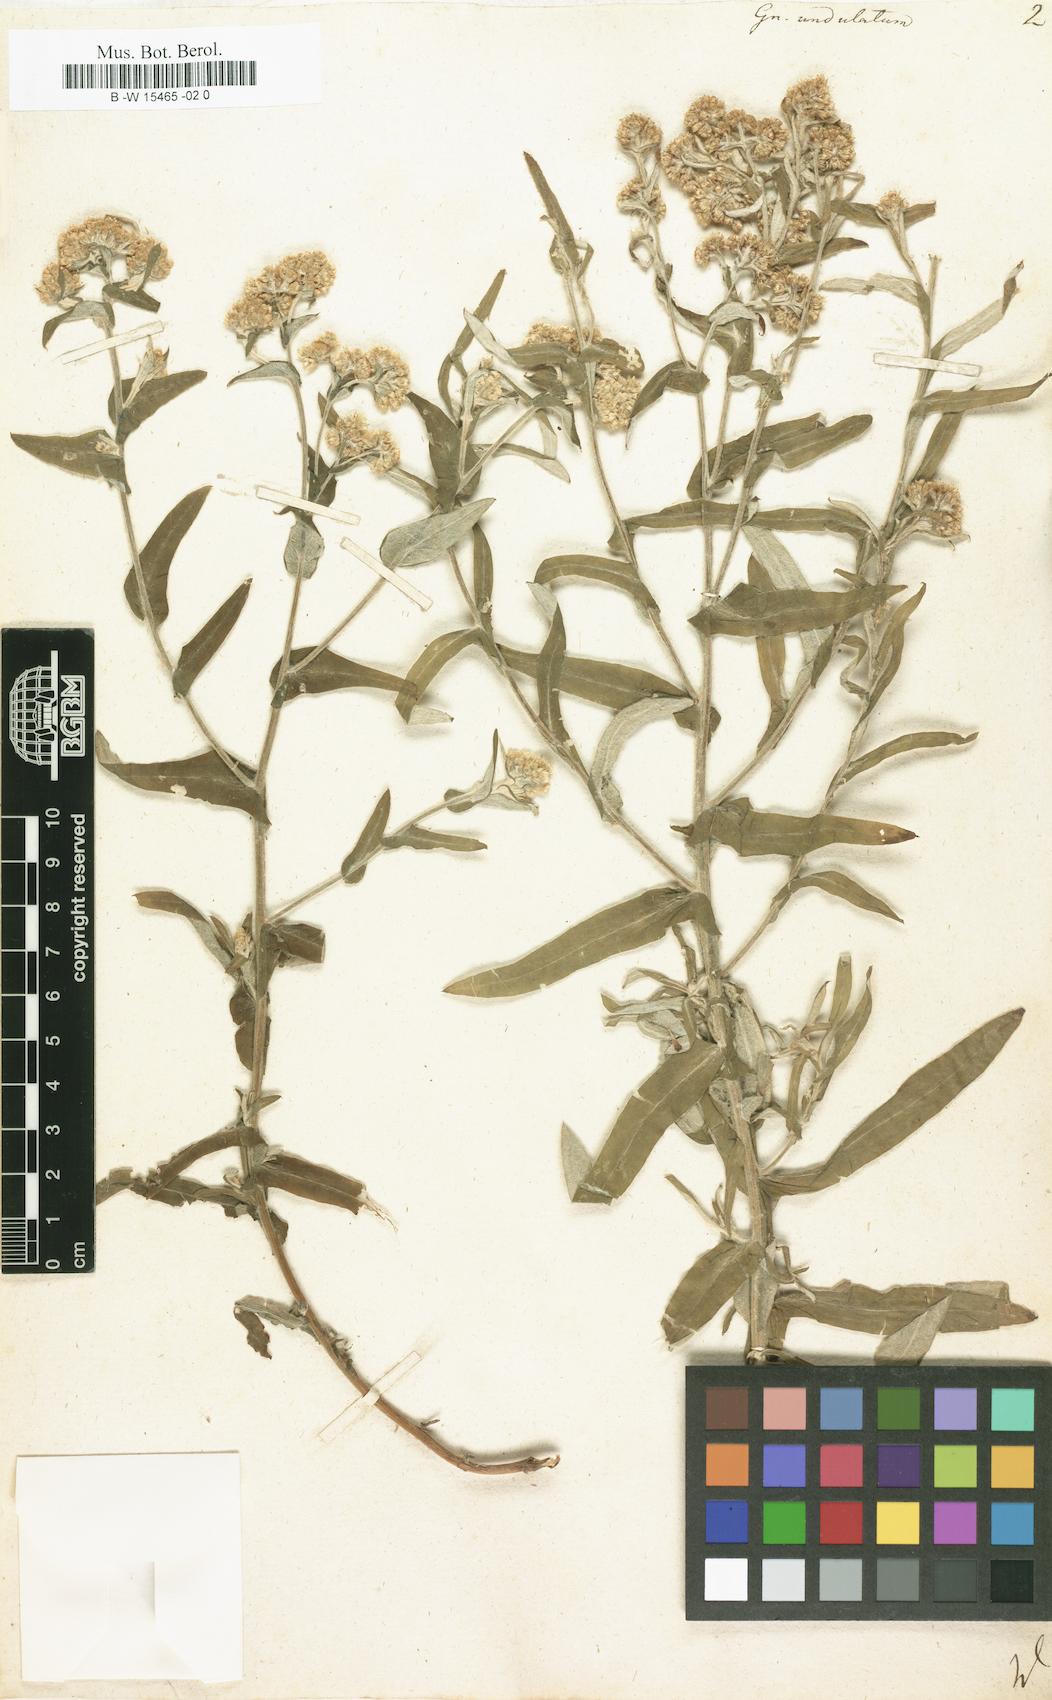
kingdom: Plantae
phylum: Tracheophyta
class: Magnoliopsida
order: Asterales
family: Asteraceae
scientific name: Asteraceae
